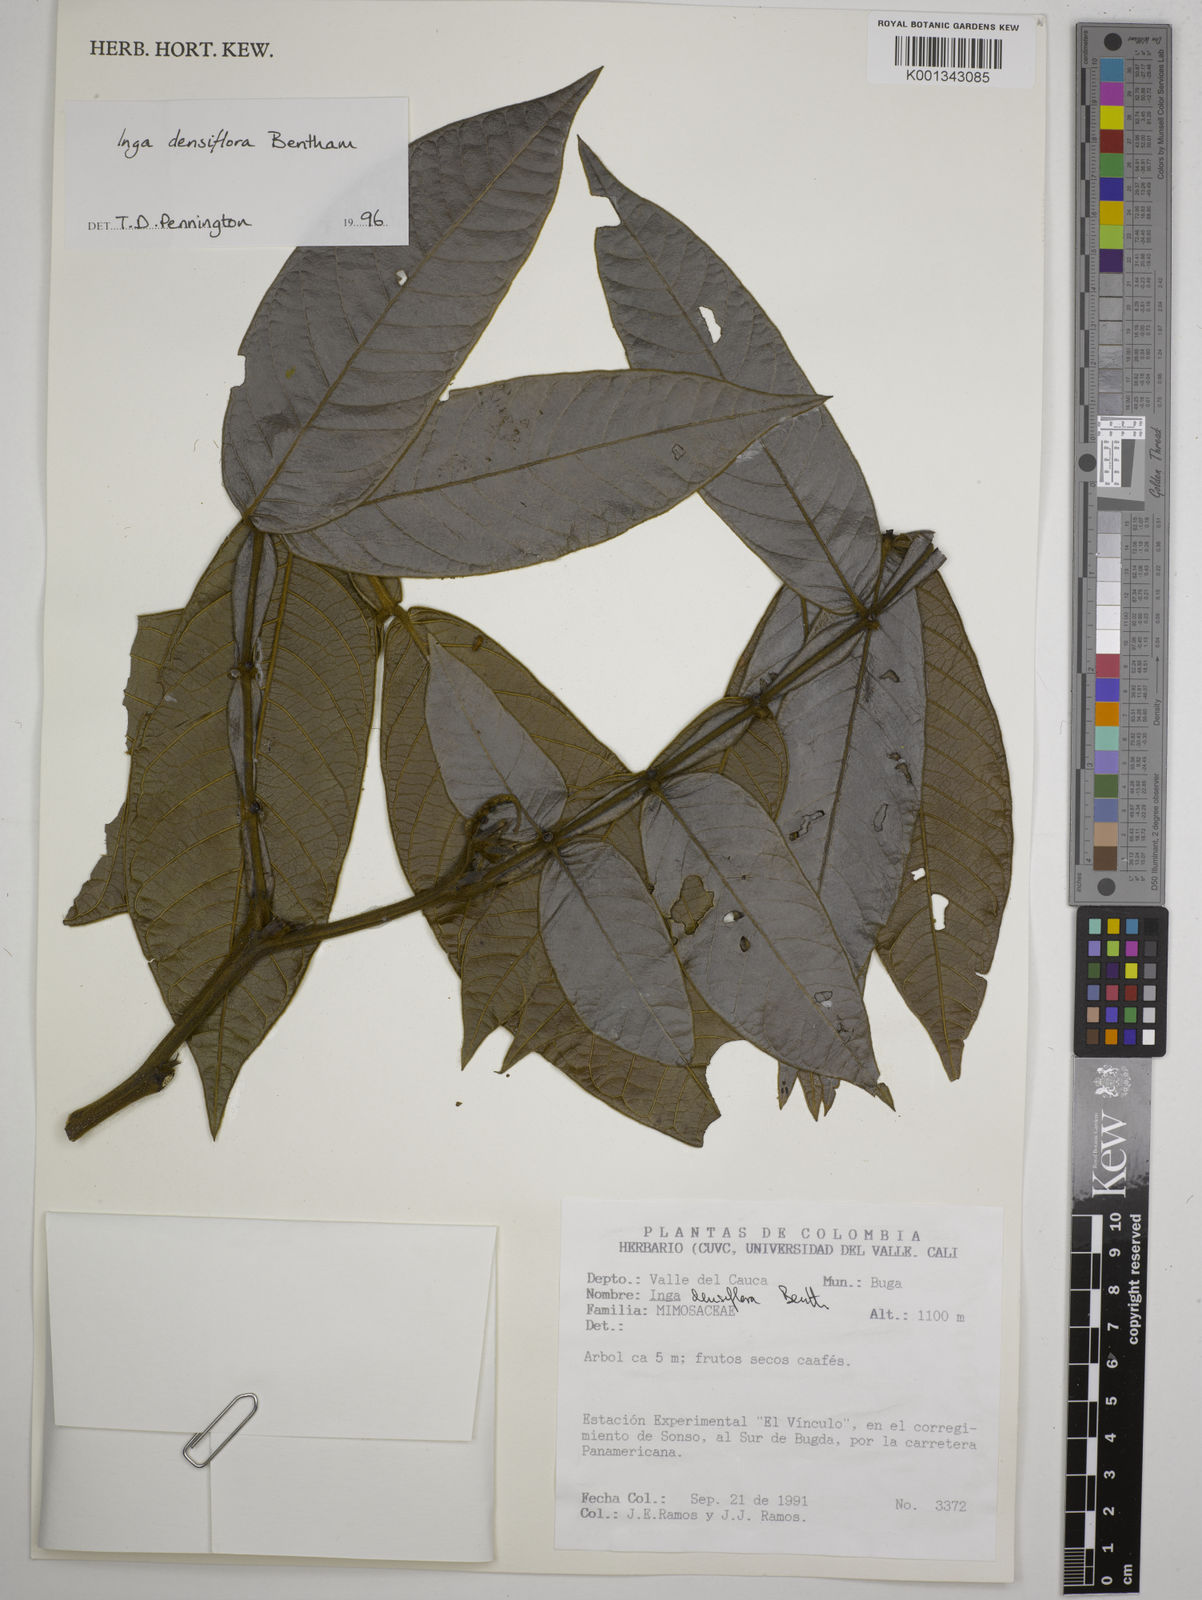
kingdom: Plantae
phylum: Tracheophyta
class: Magnoliopsida
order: Fabales
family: Fabaceae
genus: Inga
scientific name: Inga densiflora
